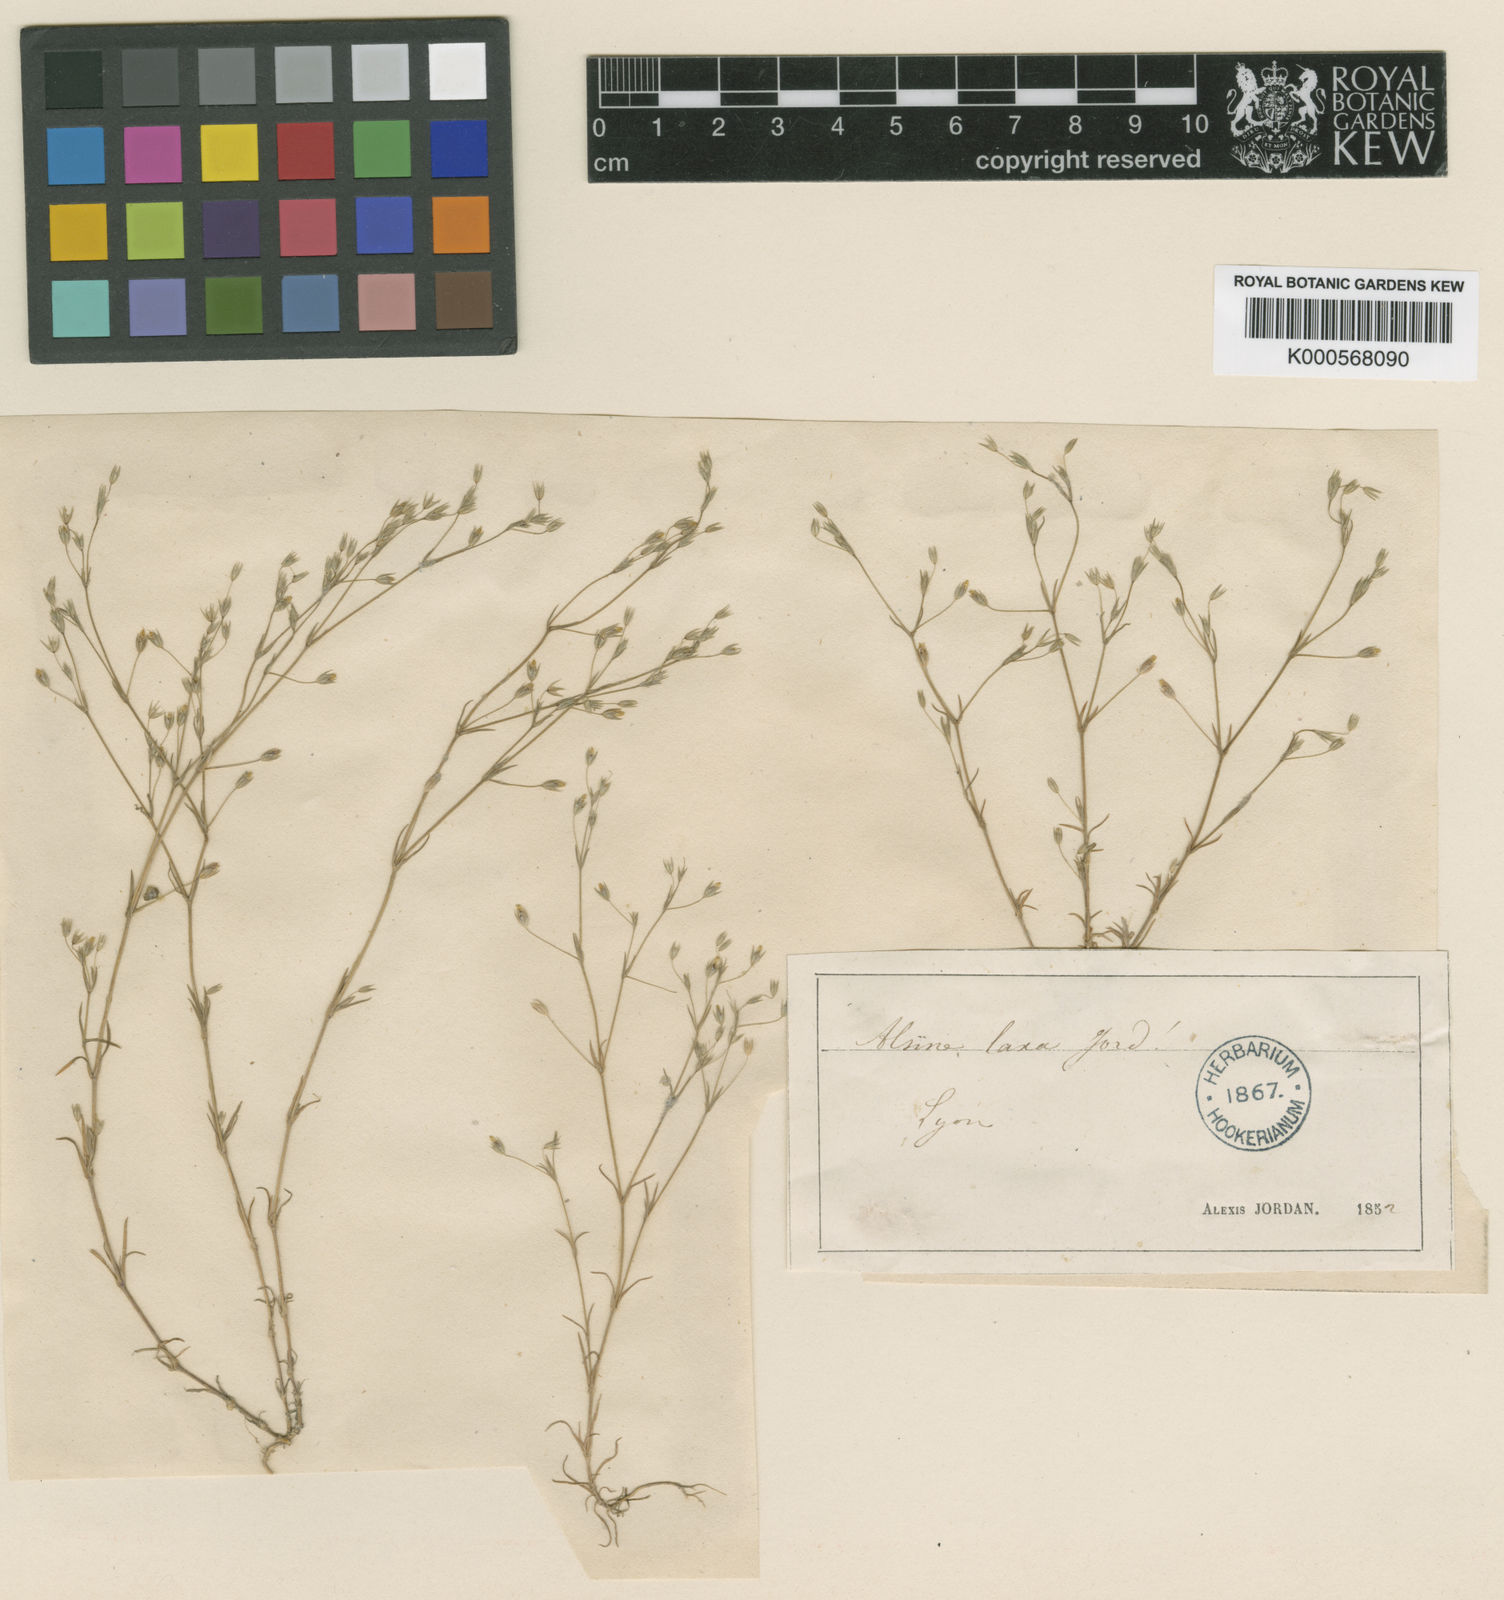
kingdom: Plantae
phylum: Tracheophyta
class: Magnoliopsida
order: Caryophyllales
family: Caryophyllaceae
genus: Sabulina
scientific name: Sabulina tenuifolia
